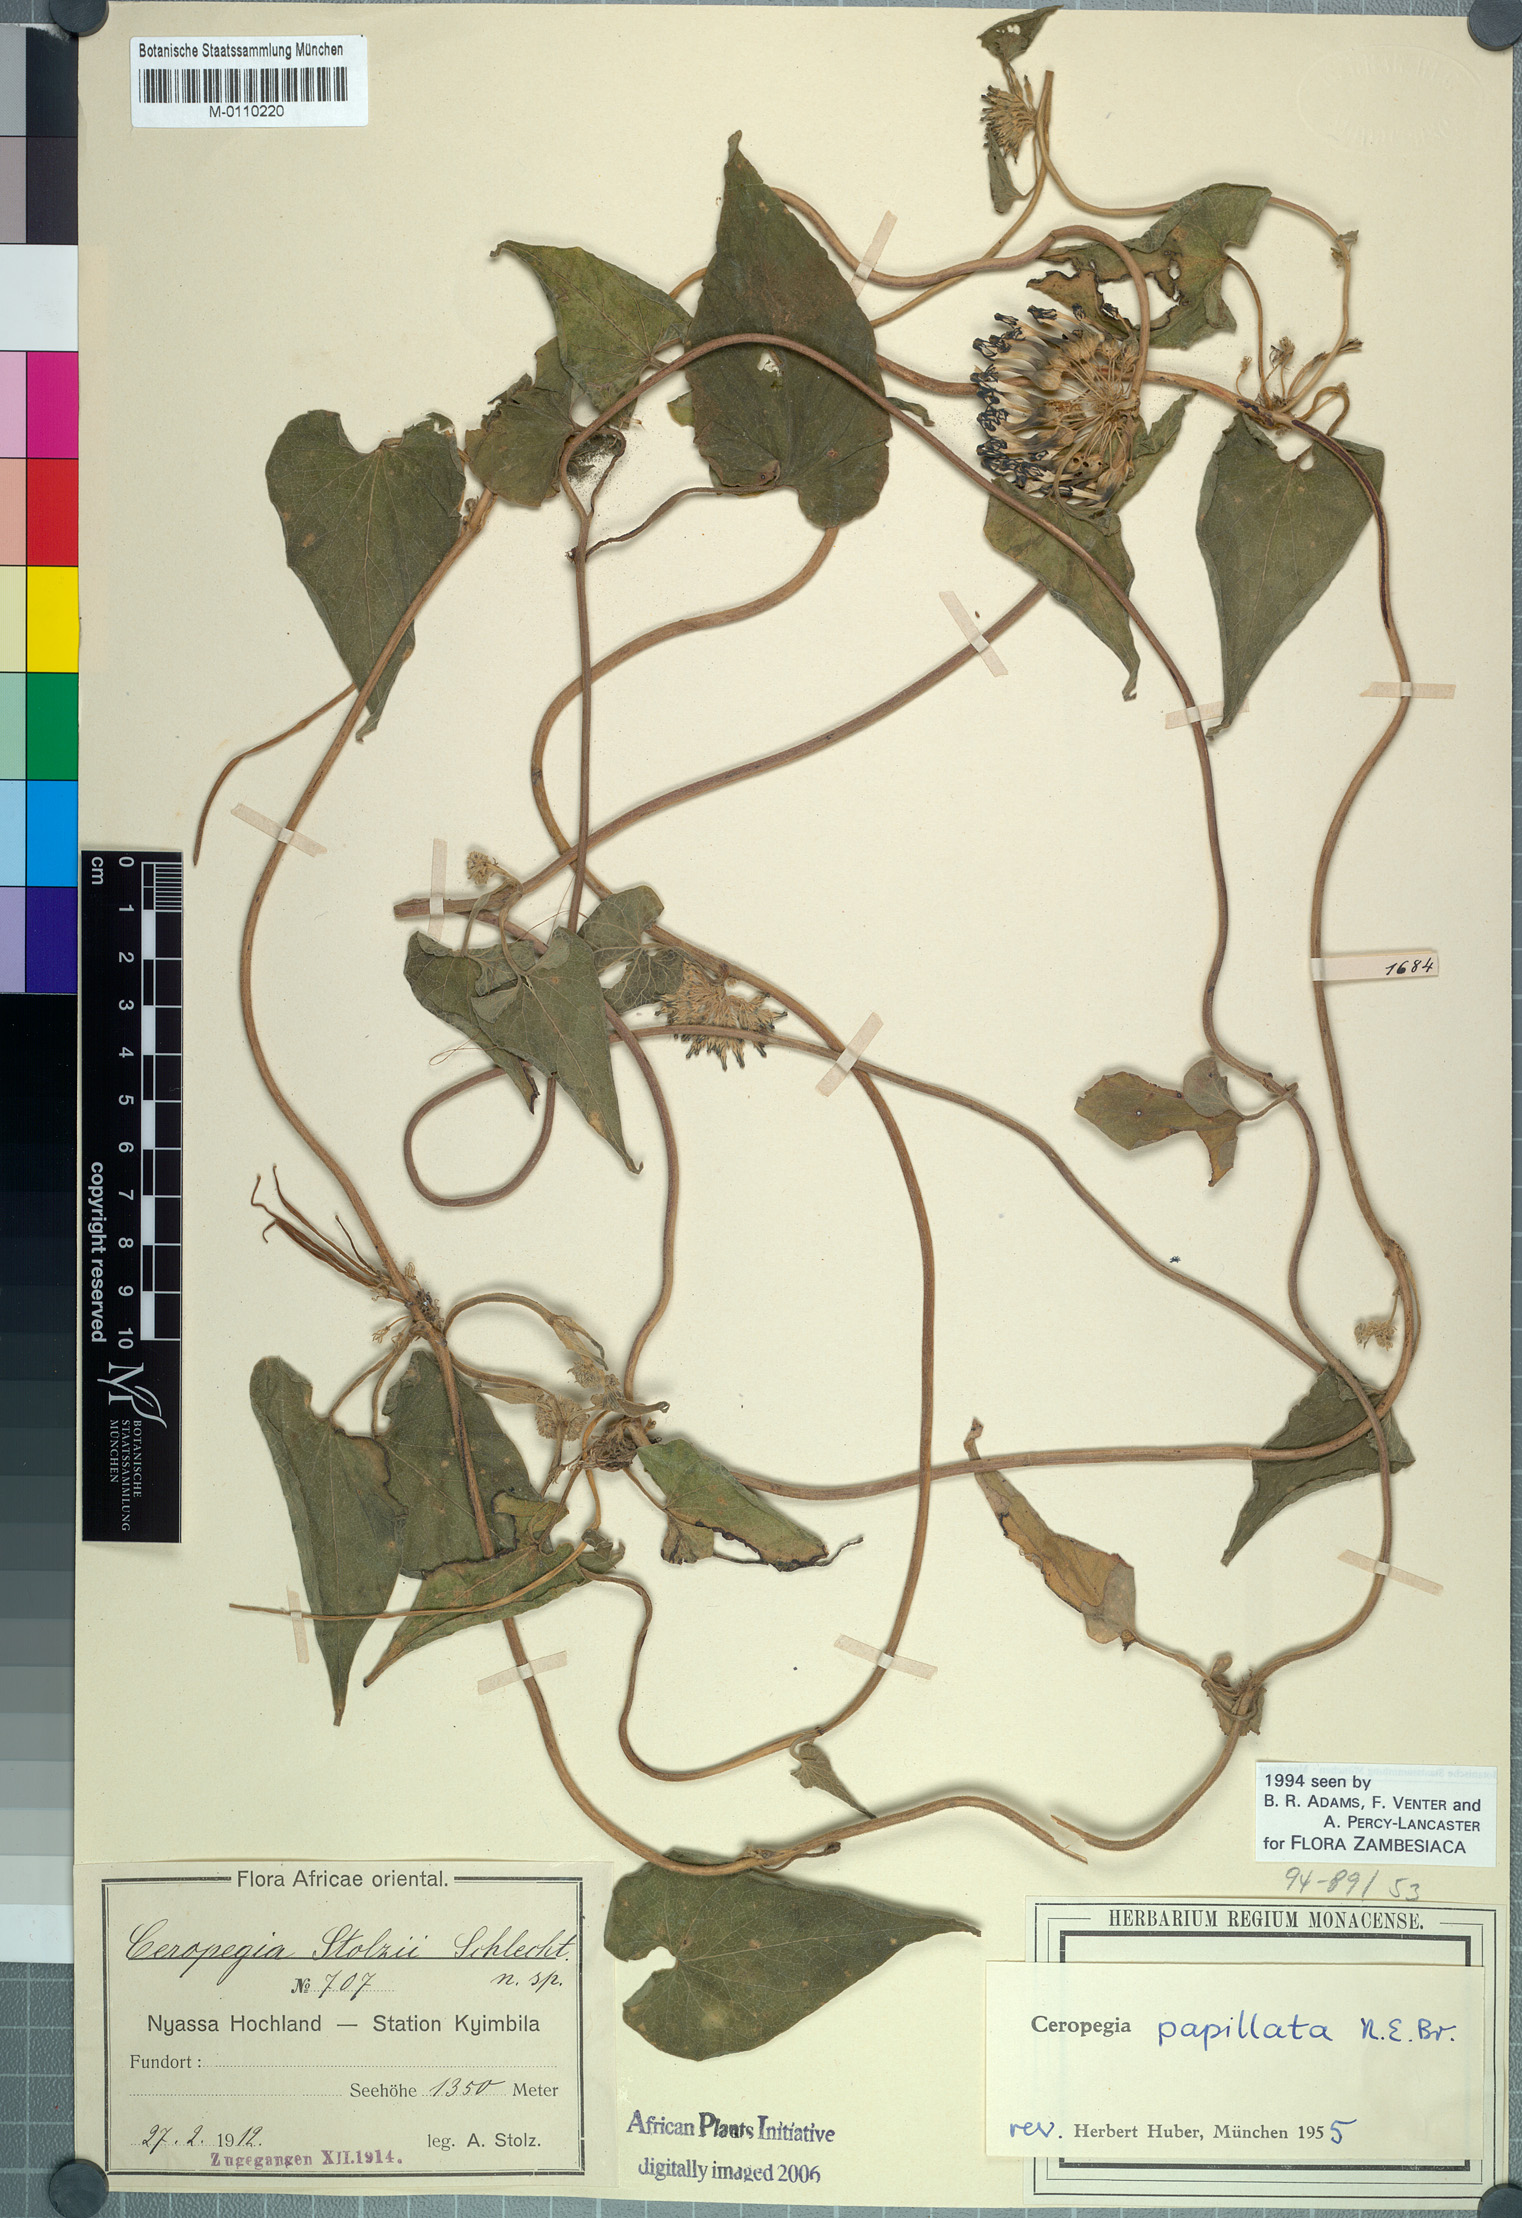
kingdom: Plantae
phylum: Tracheophyta
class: Magnoliopsida
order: Gentianales
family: Apocynaceae
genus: Ceropegia
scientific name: Ceropegia papillata
